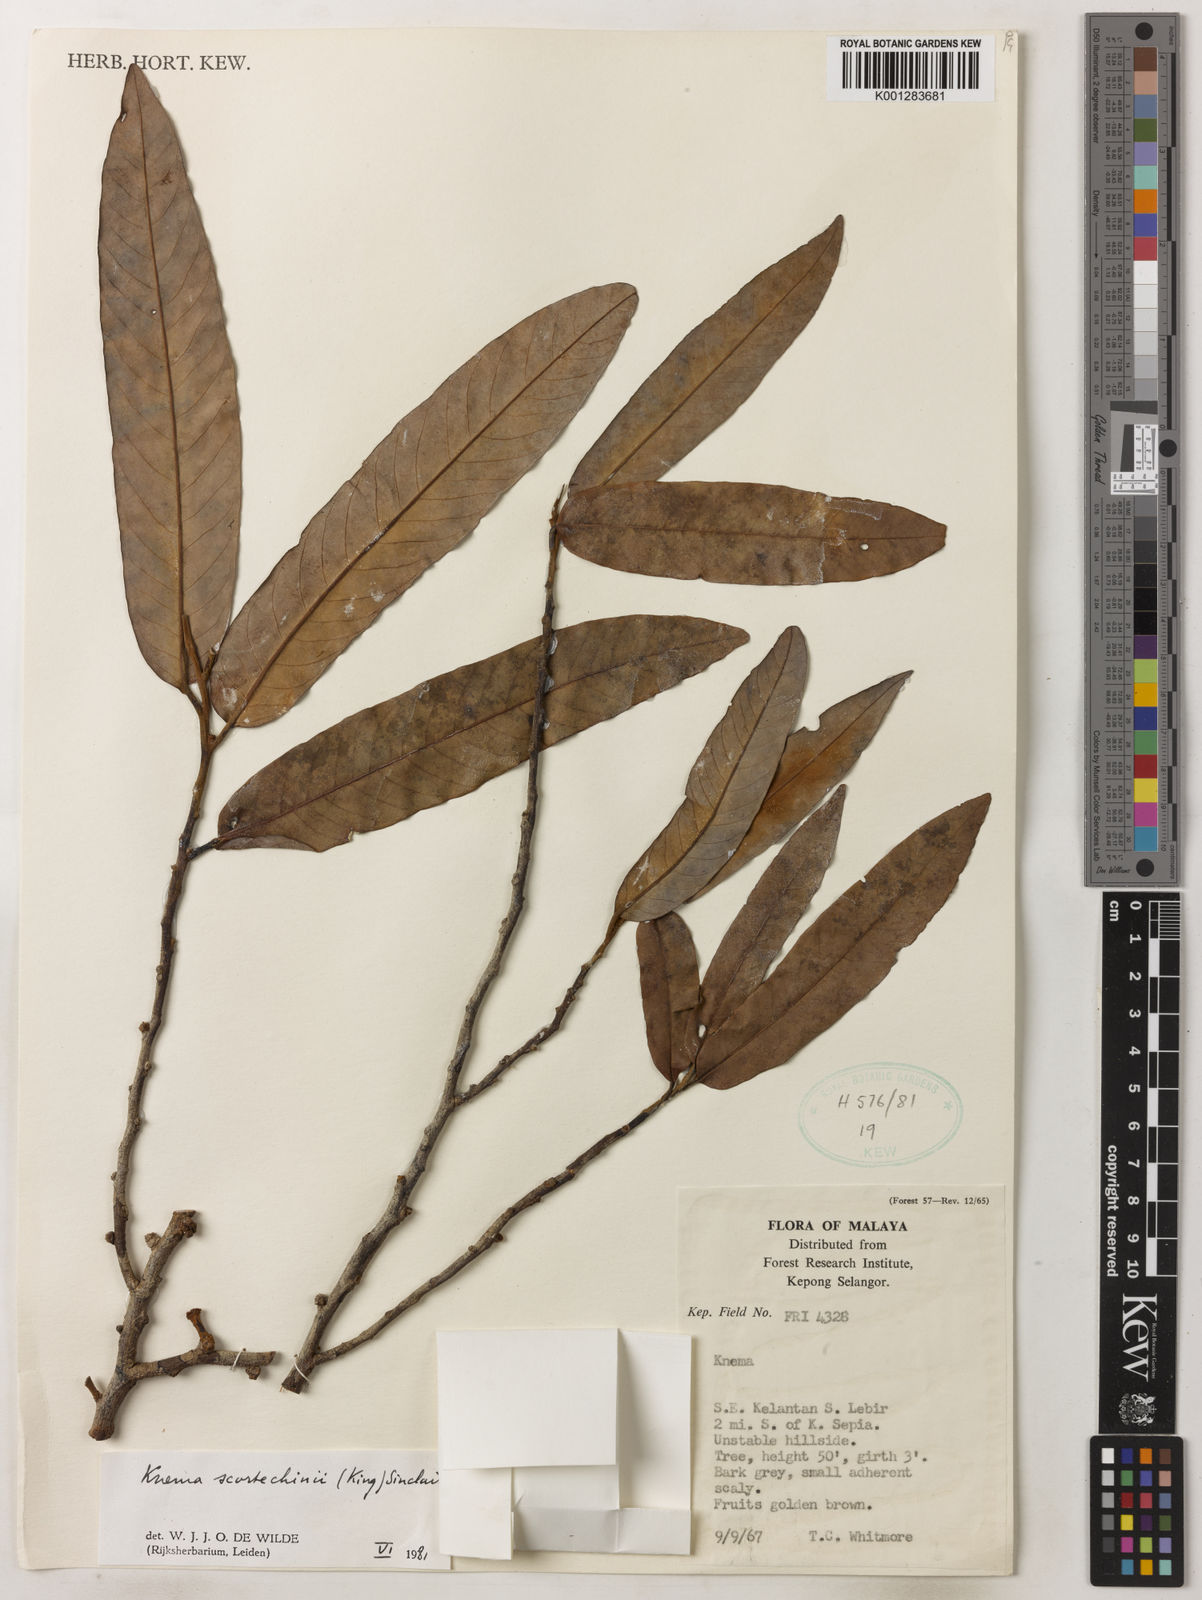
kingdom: Plantae
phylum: Tracheophyta
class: Magnoliopsida
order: Magnoliales
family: Myristicaceae
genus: Knema
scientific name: Knema scortechinii
